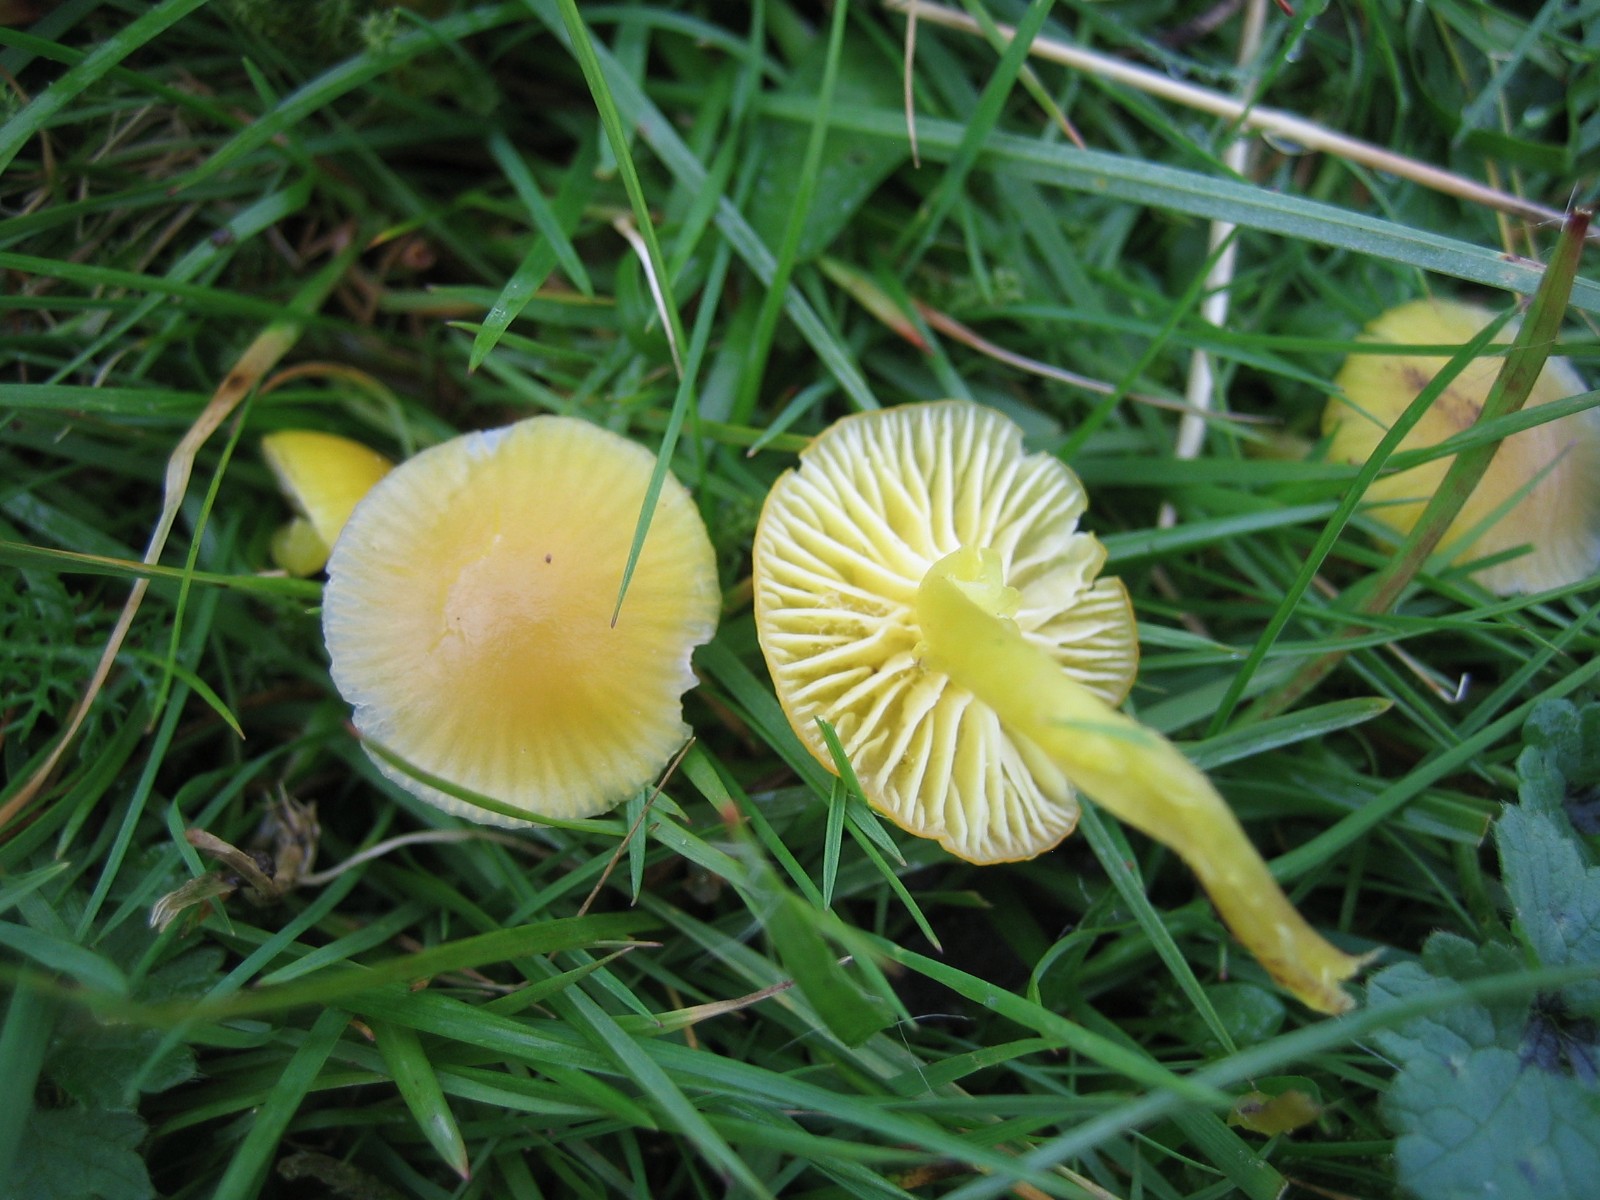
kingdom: Fungi
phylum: Basidiomycota
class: Agaricomycetes
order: Agaricales
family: Hygrophoraceae
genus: Hygrocybe
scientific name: Hygrocybe chlorophana
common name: gul vokshat
